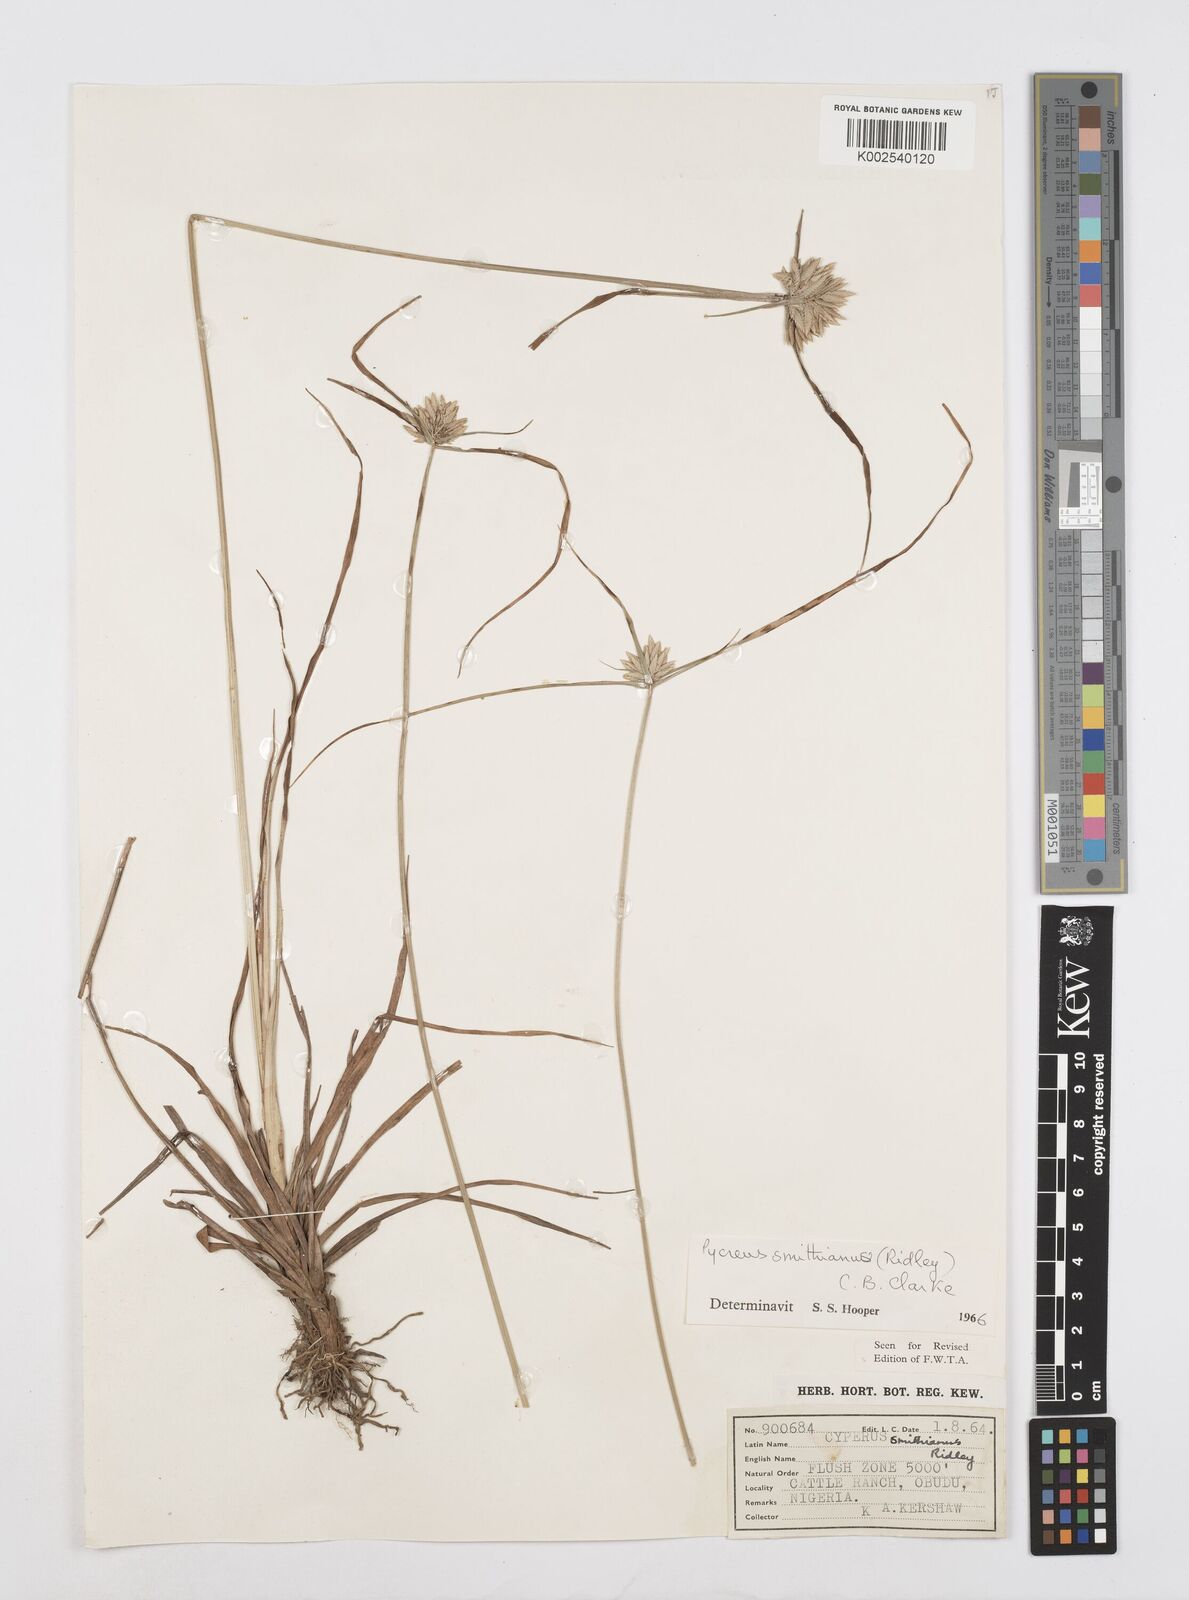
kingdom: Plantae
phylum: Tracheophyta
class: Liliopsida
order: Poales
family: Cyperaceae
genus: Cyperus
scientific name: Cyperus smithianus
